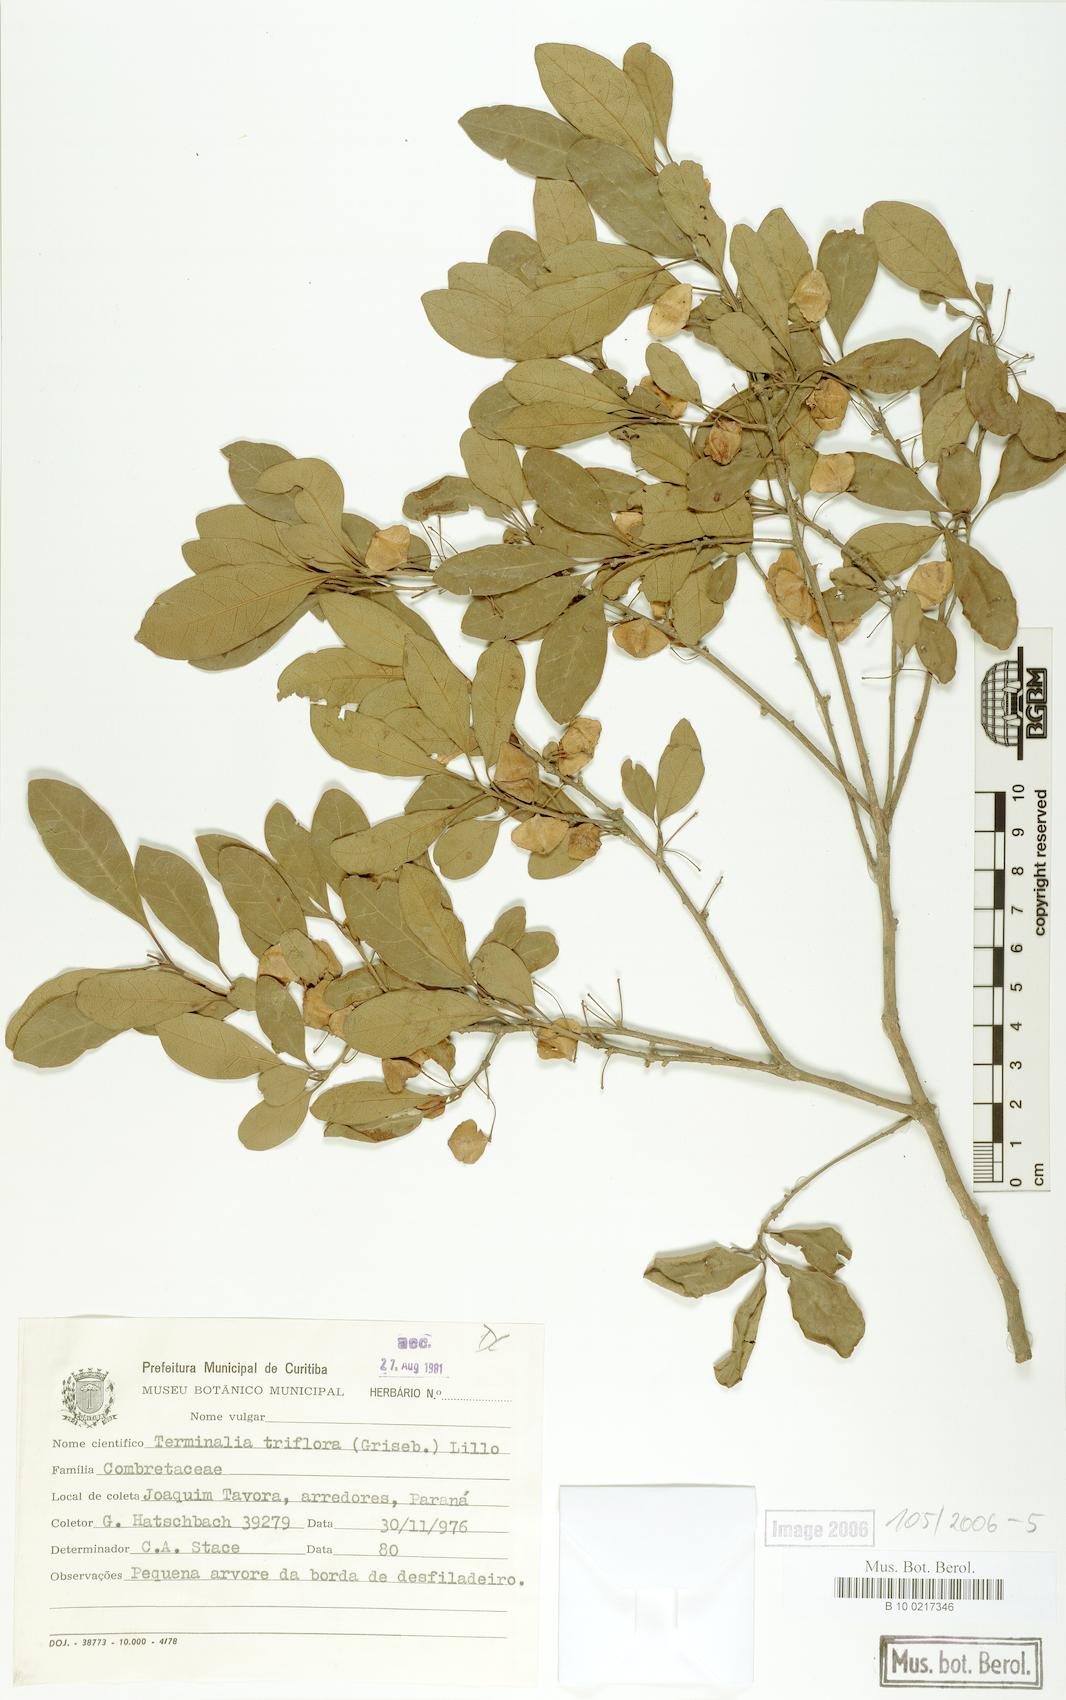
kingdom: Plantae
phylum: Tracheophyta
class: Magnoliopsida
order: Myrtales
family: Combretaceae
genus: Terminalia
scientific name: Terminalia triflora
